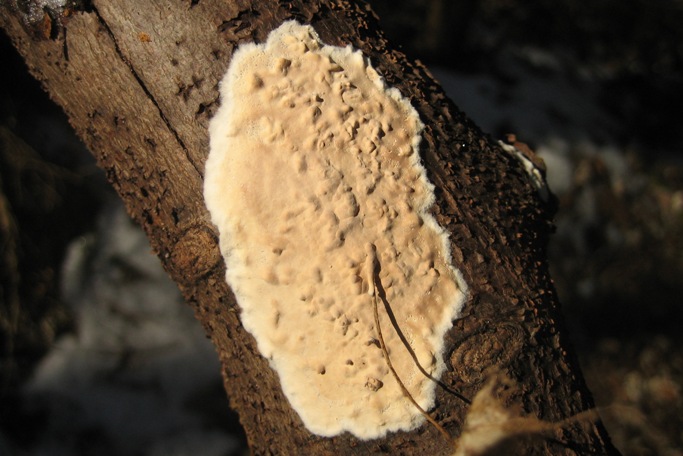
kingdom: Fungi
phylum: Basidiomycota
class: Agaricomycetes
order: Agaricales
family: Physalacriaceae
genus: Cylindrobasidium
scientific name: Cylindrobasidium evolvens
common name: sprækkehinde
